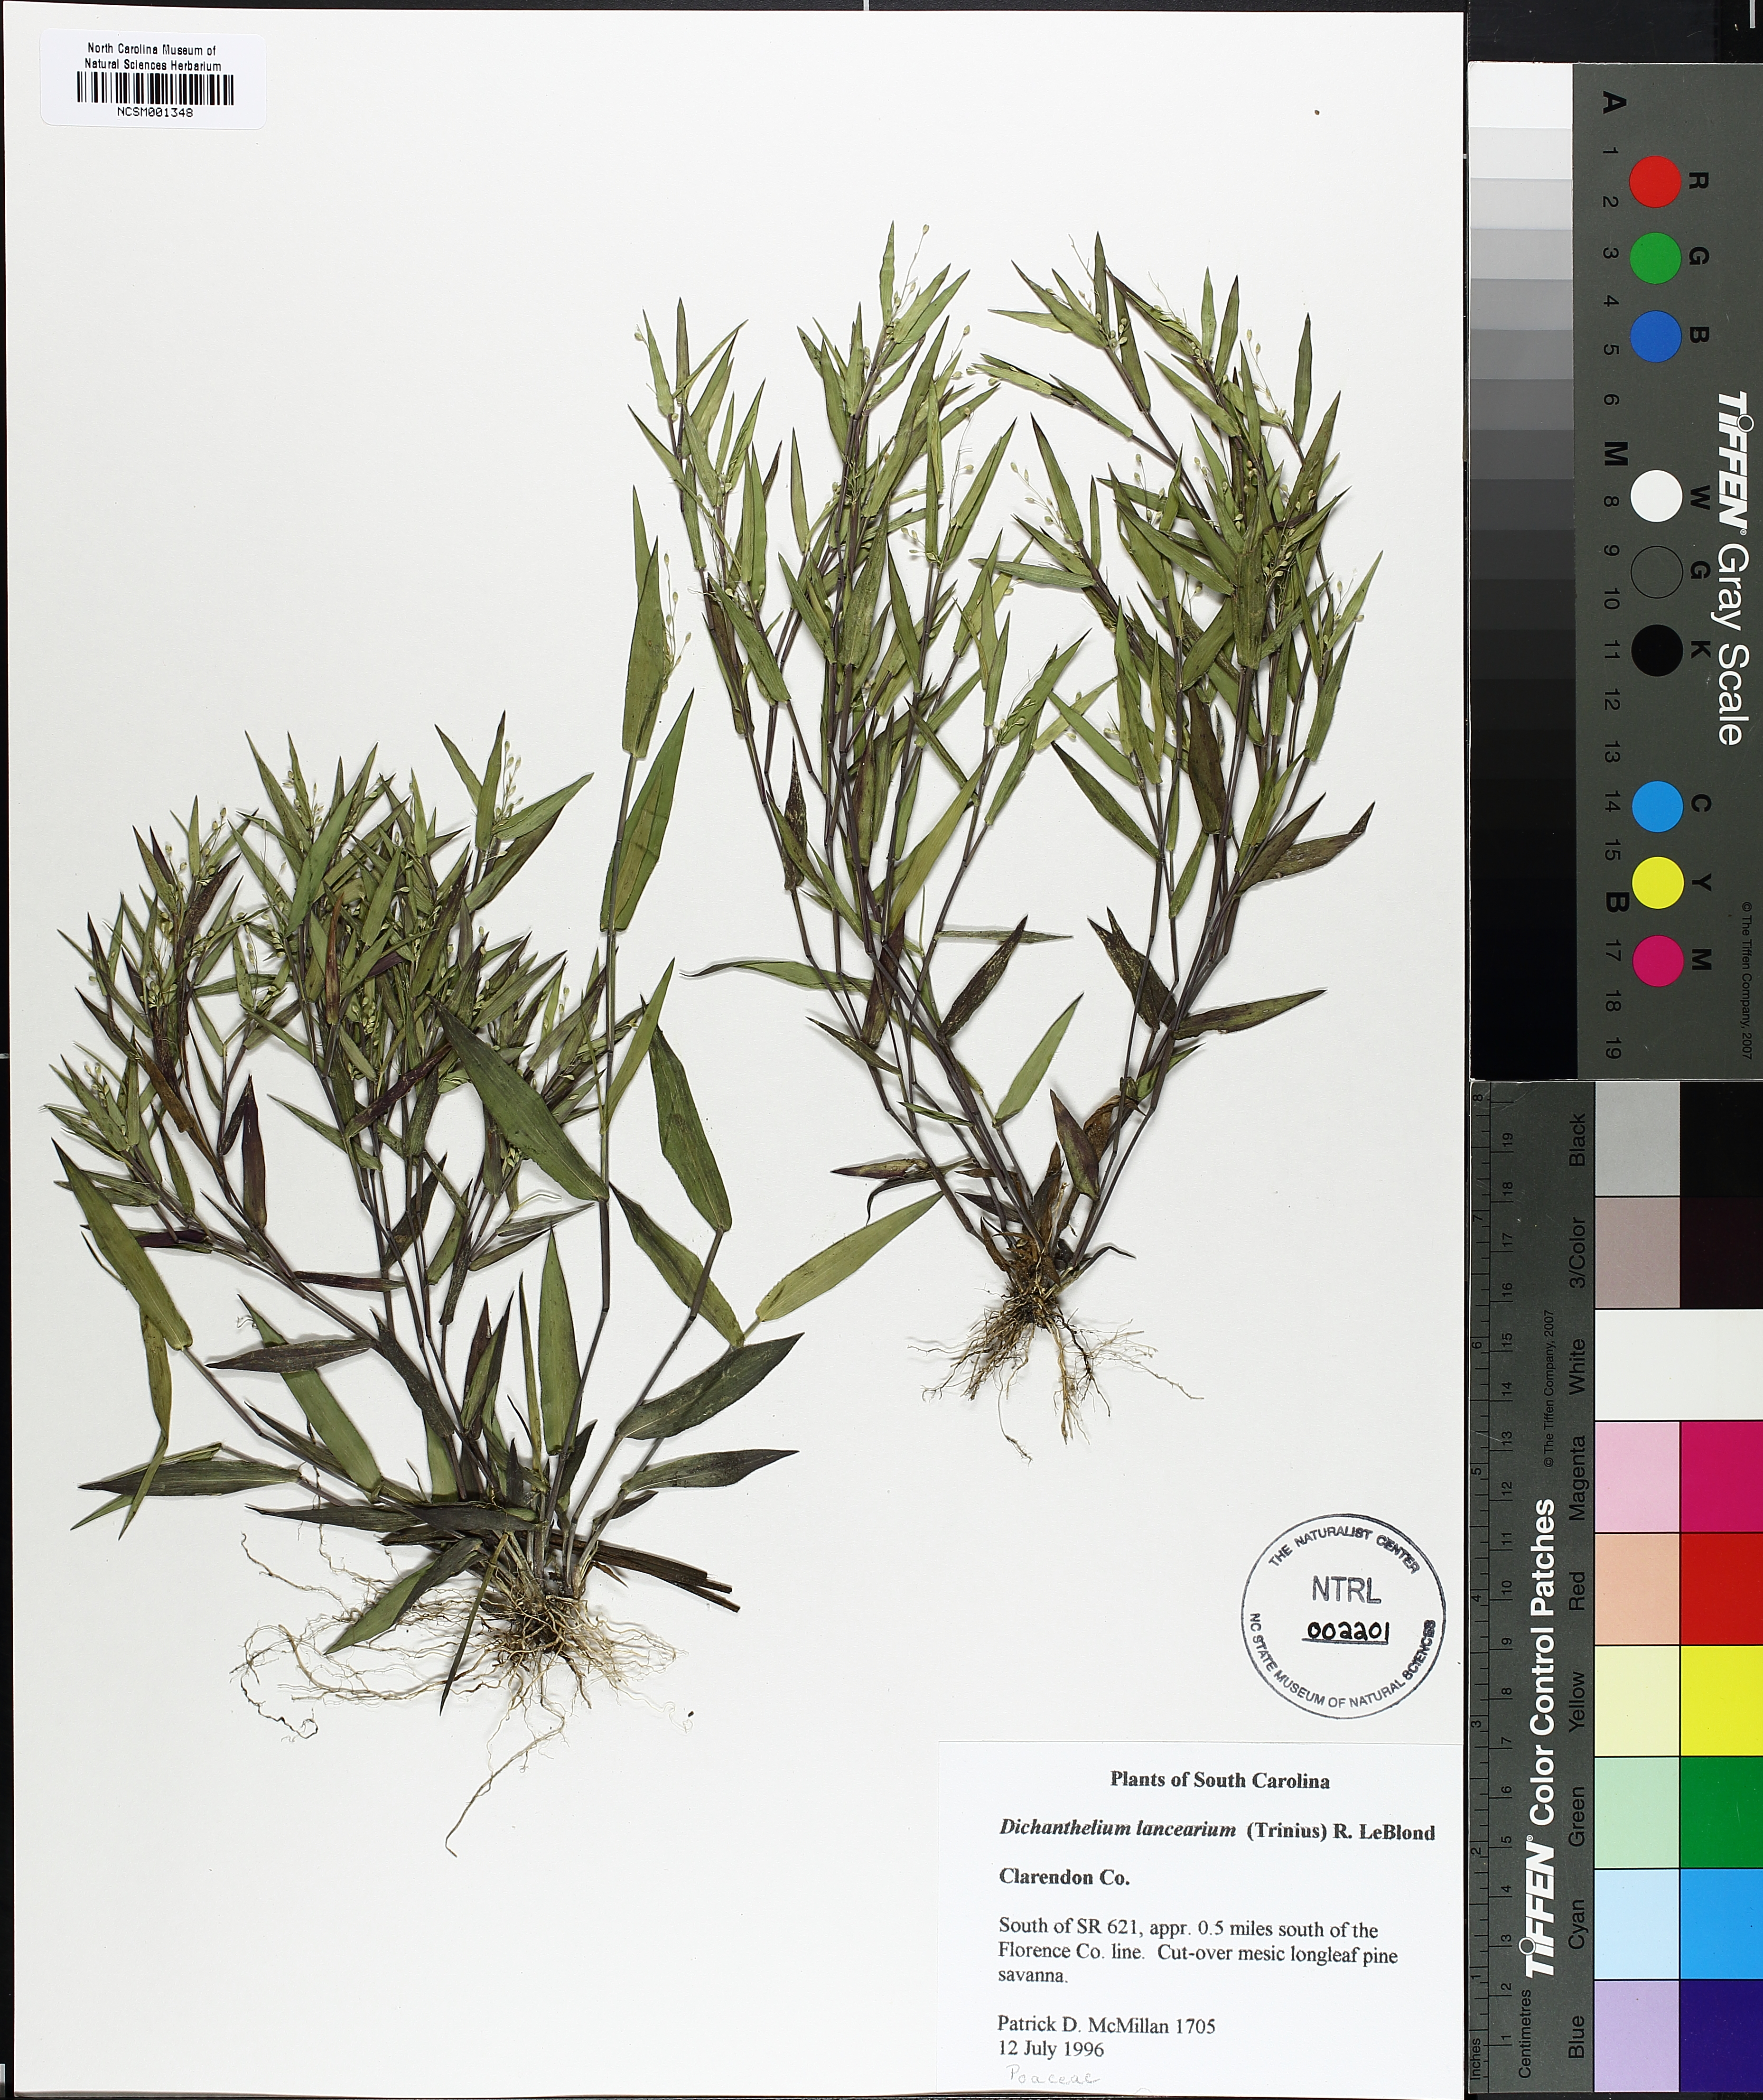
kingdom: Plantae
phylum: Tracheophyta
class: Liliopsida
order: Poales
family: Poaceae
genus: Dichanthelium
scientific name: Dichanthelium portoricense
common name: American panicgrass
